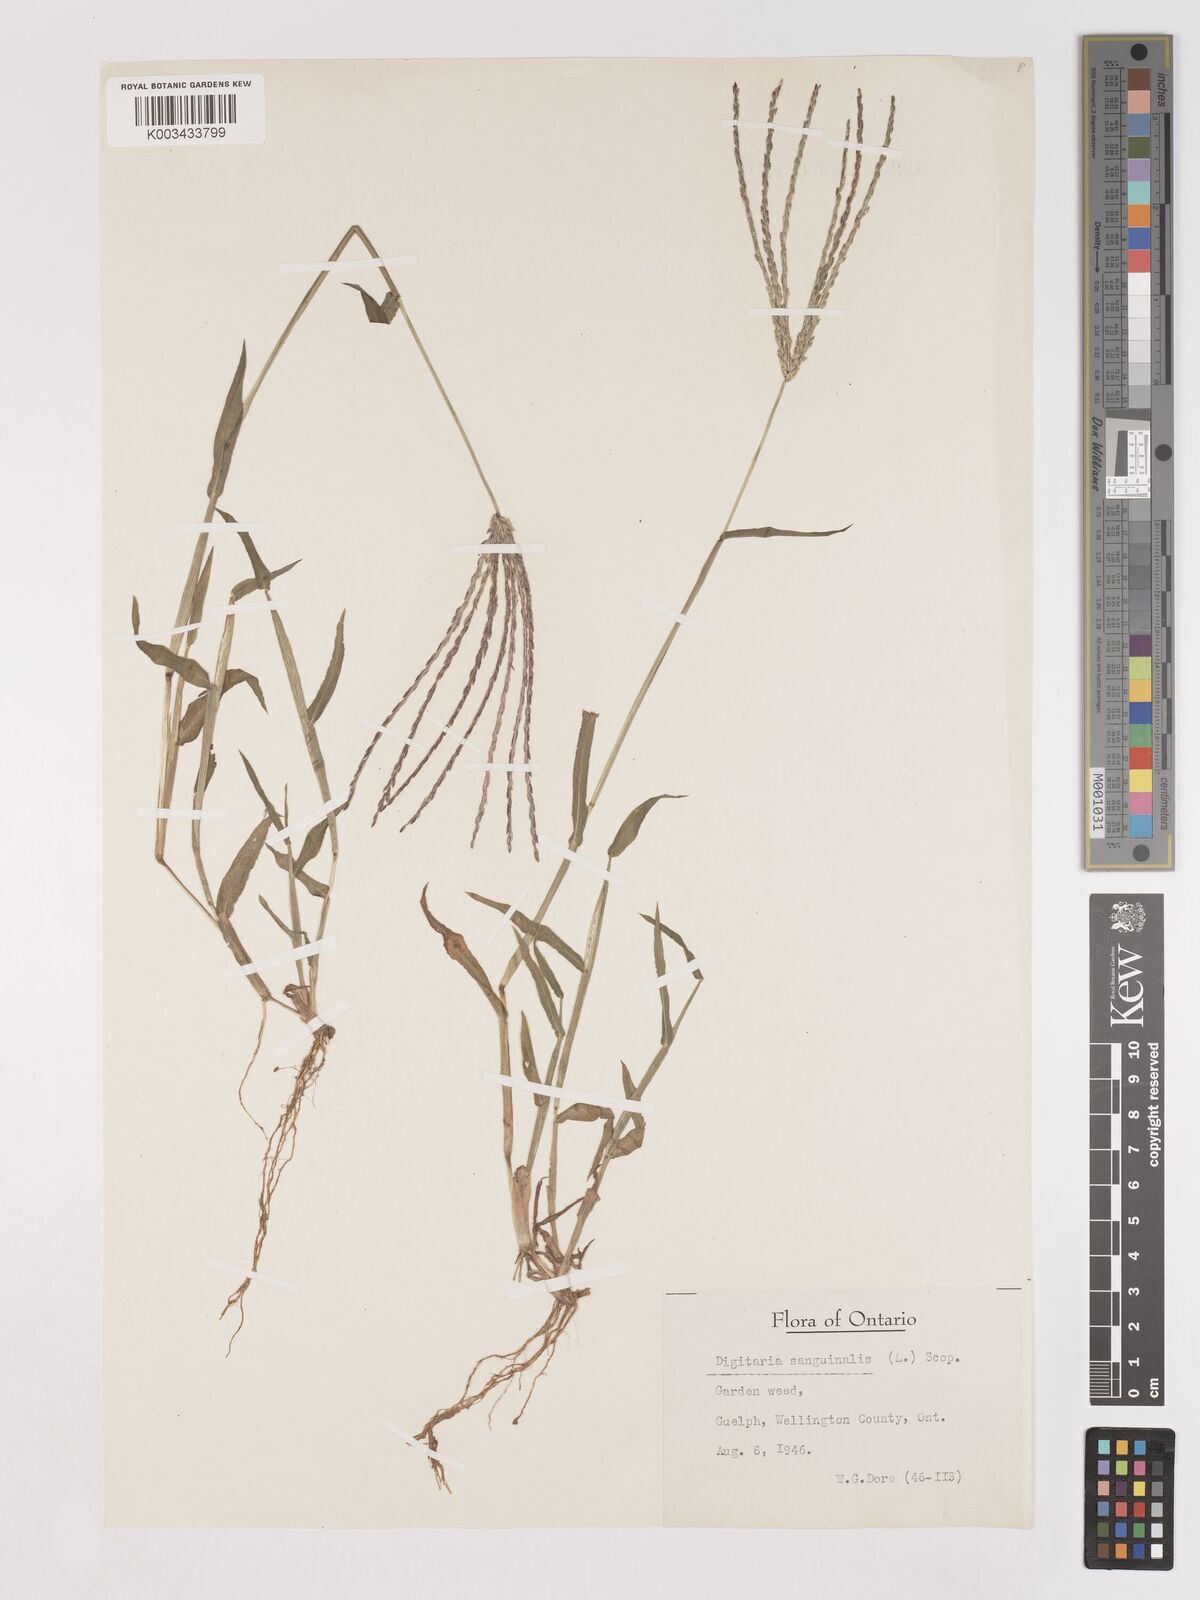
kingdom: Plantae
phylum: Tracheophyta
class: Liliopsida
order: Poales
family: Poaceae
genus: Digitaria
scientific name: Digitaria sanguinalis
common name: Hairy crabgrass
